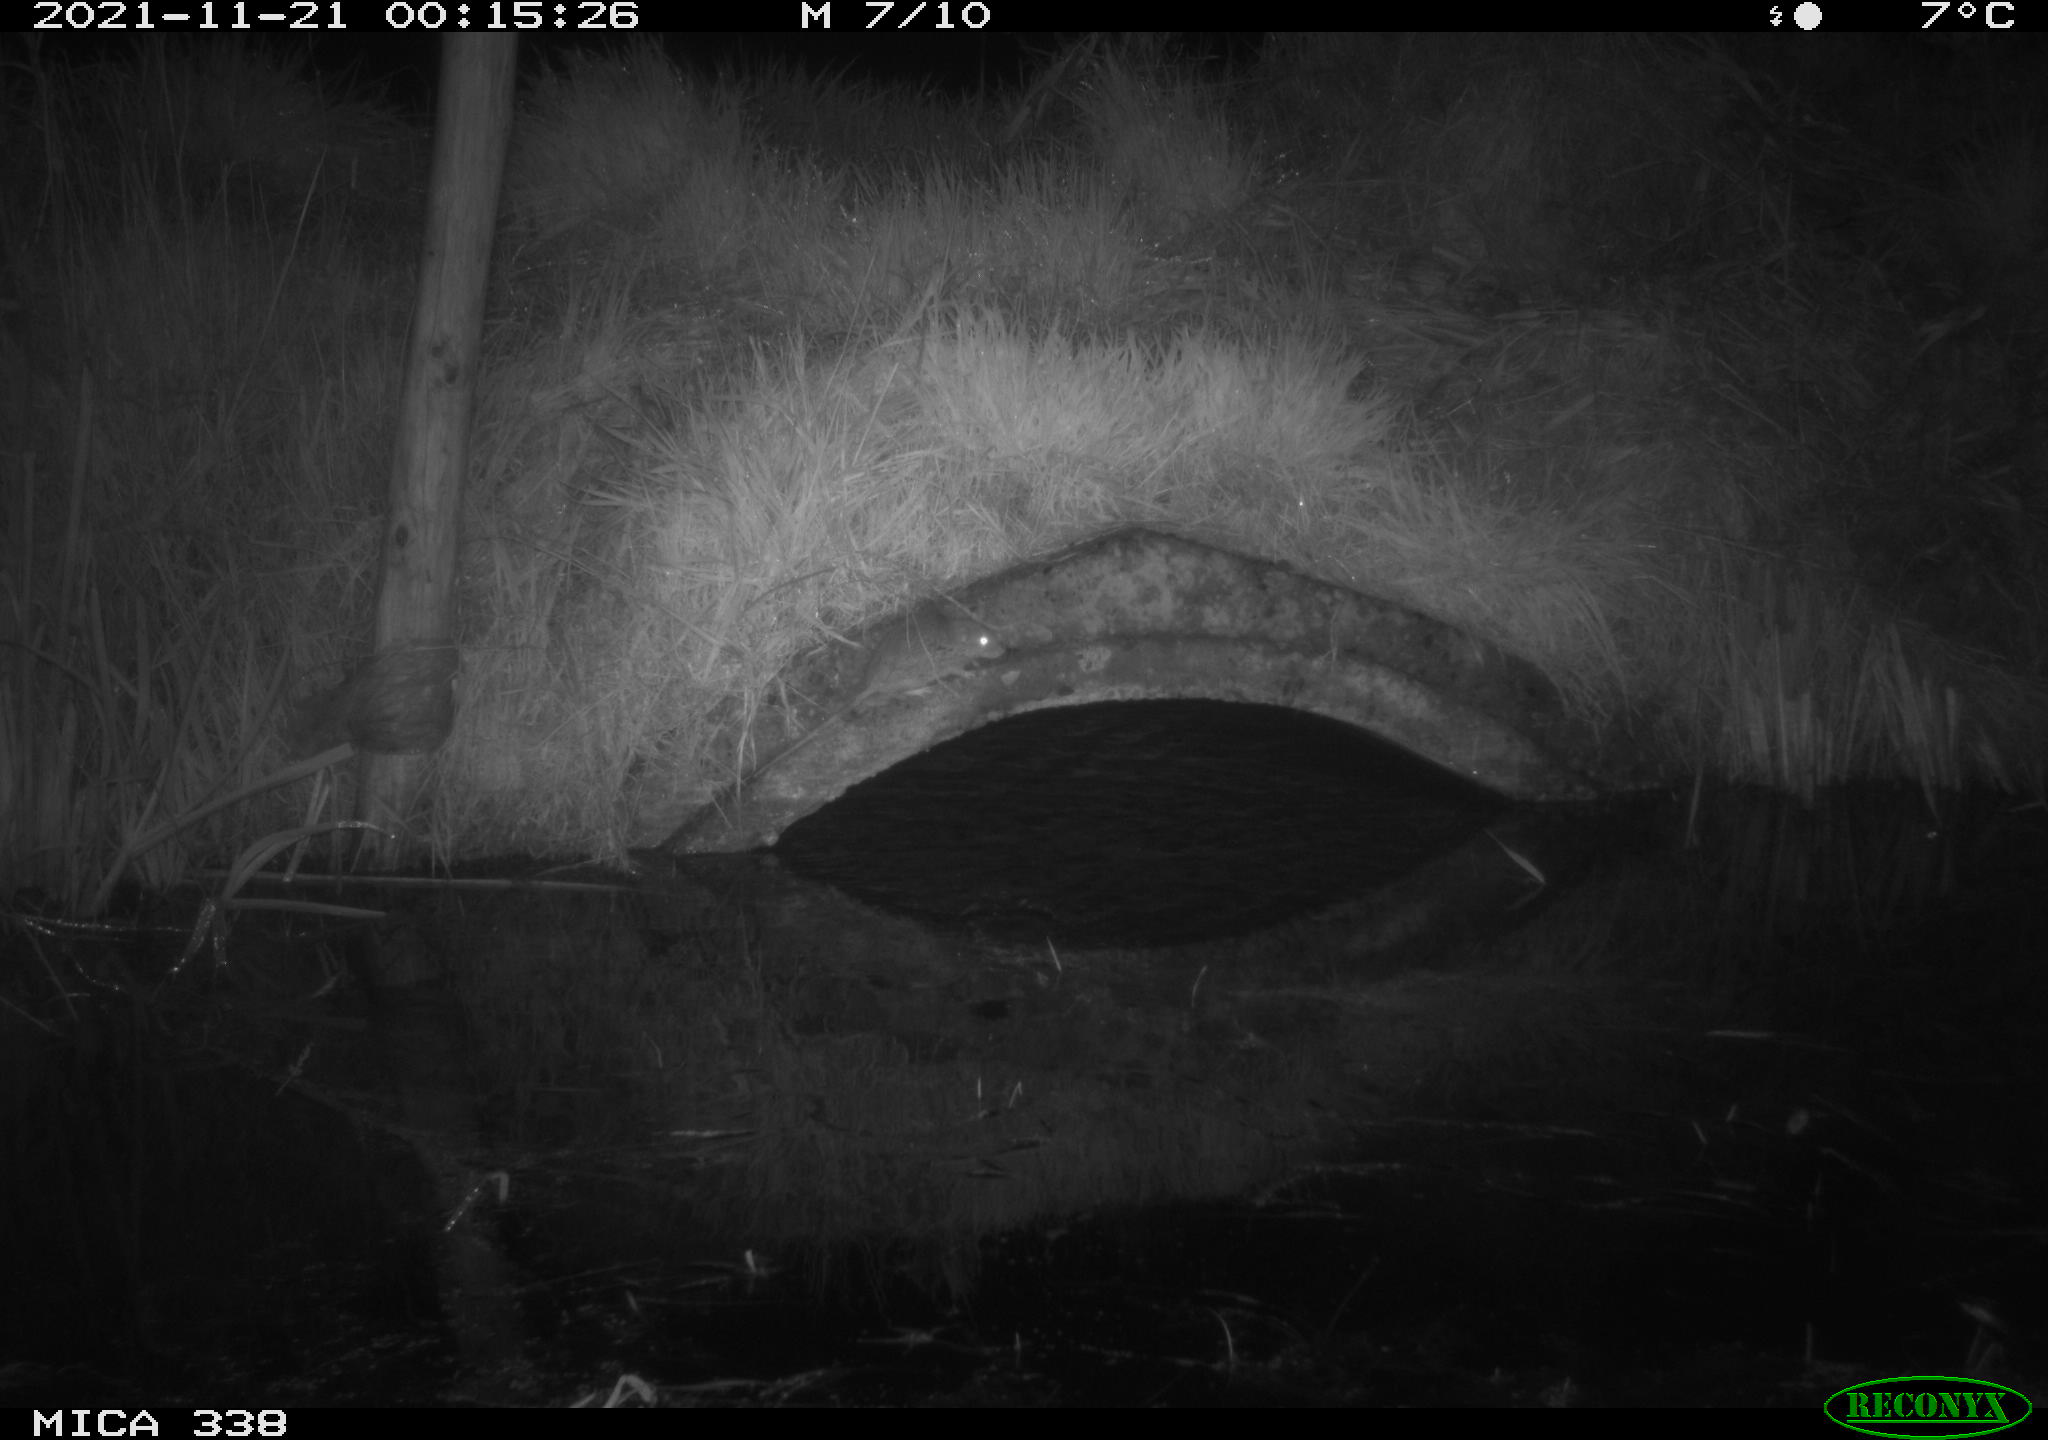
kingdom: Animalia
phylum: Chordata
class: Mammalia
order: Rodentia
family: Muridae
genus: Rattus
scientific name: Rattus norvegicus
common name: Brown rat
